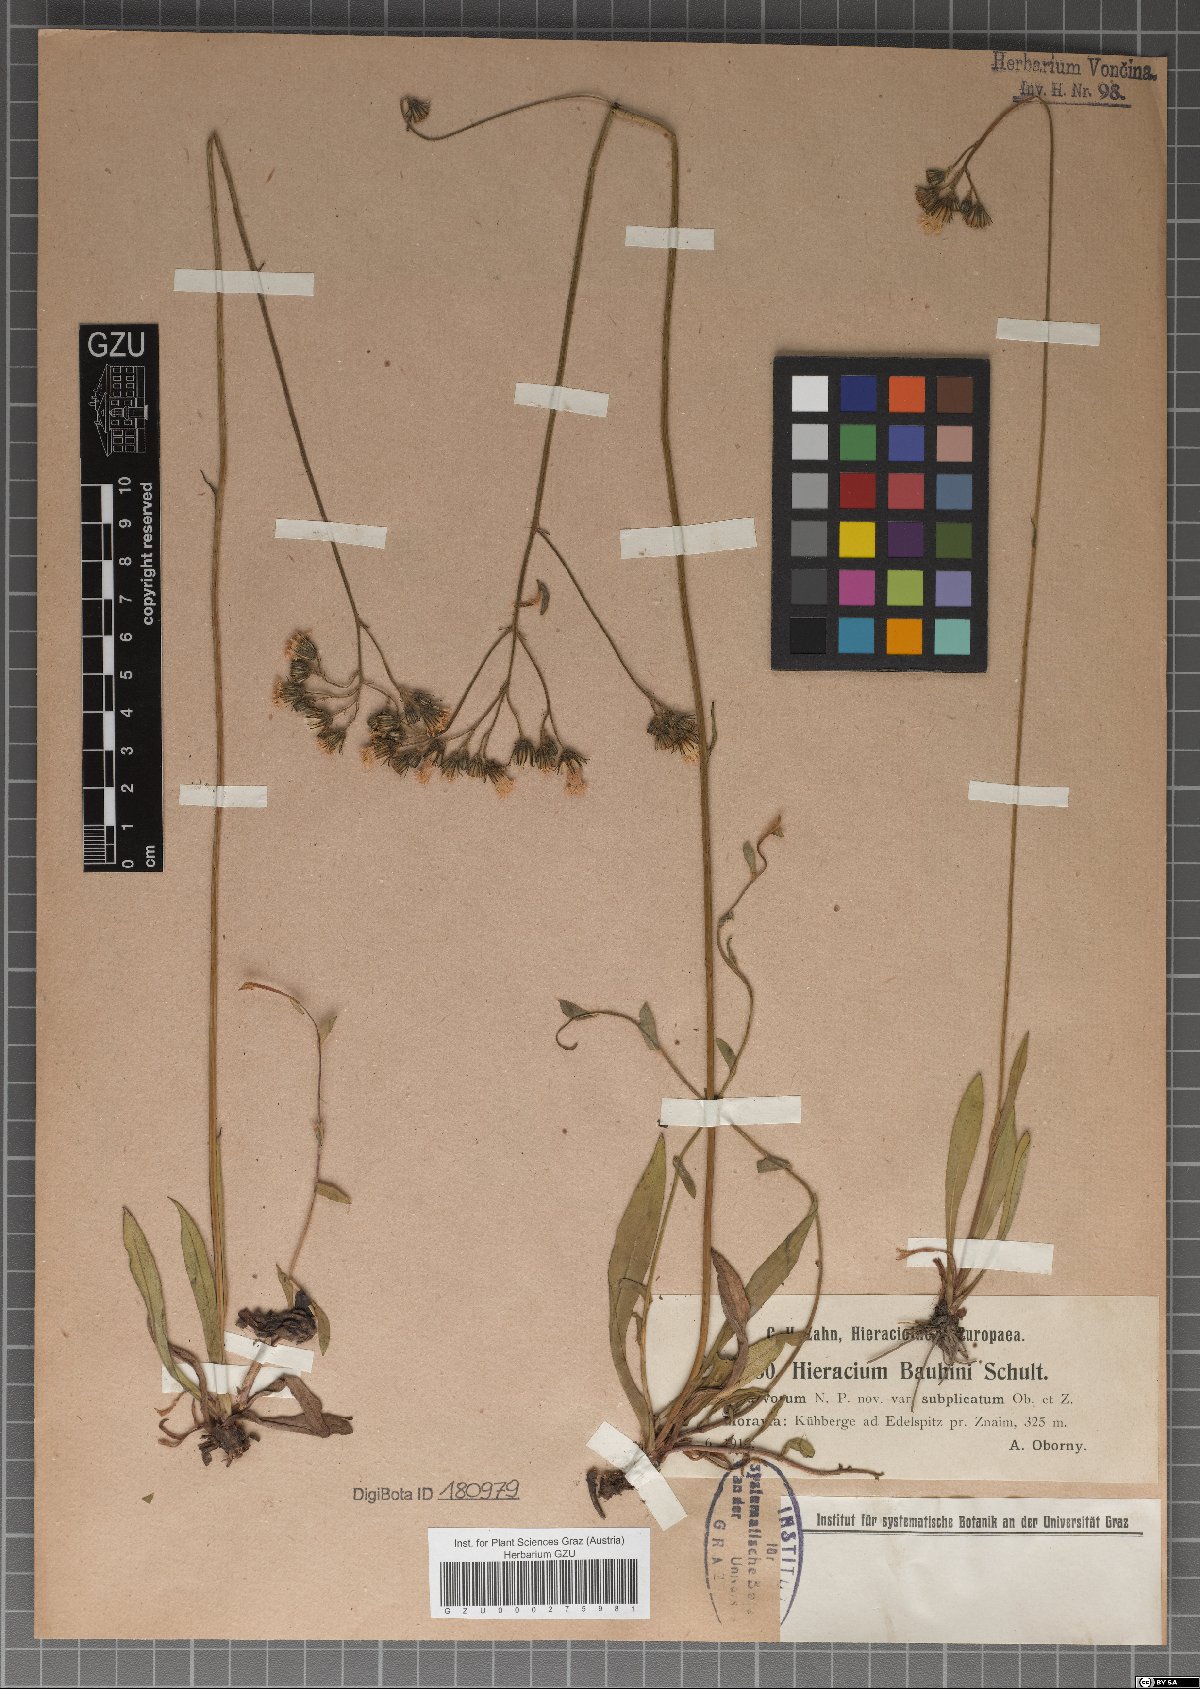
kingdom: Plantae
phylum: Tracheophyta
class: Magnoliopsida
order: Asterales
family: Asteraceae
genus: Pilosella
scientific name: Pilosella bauhini
